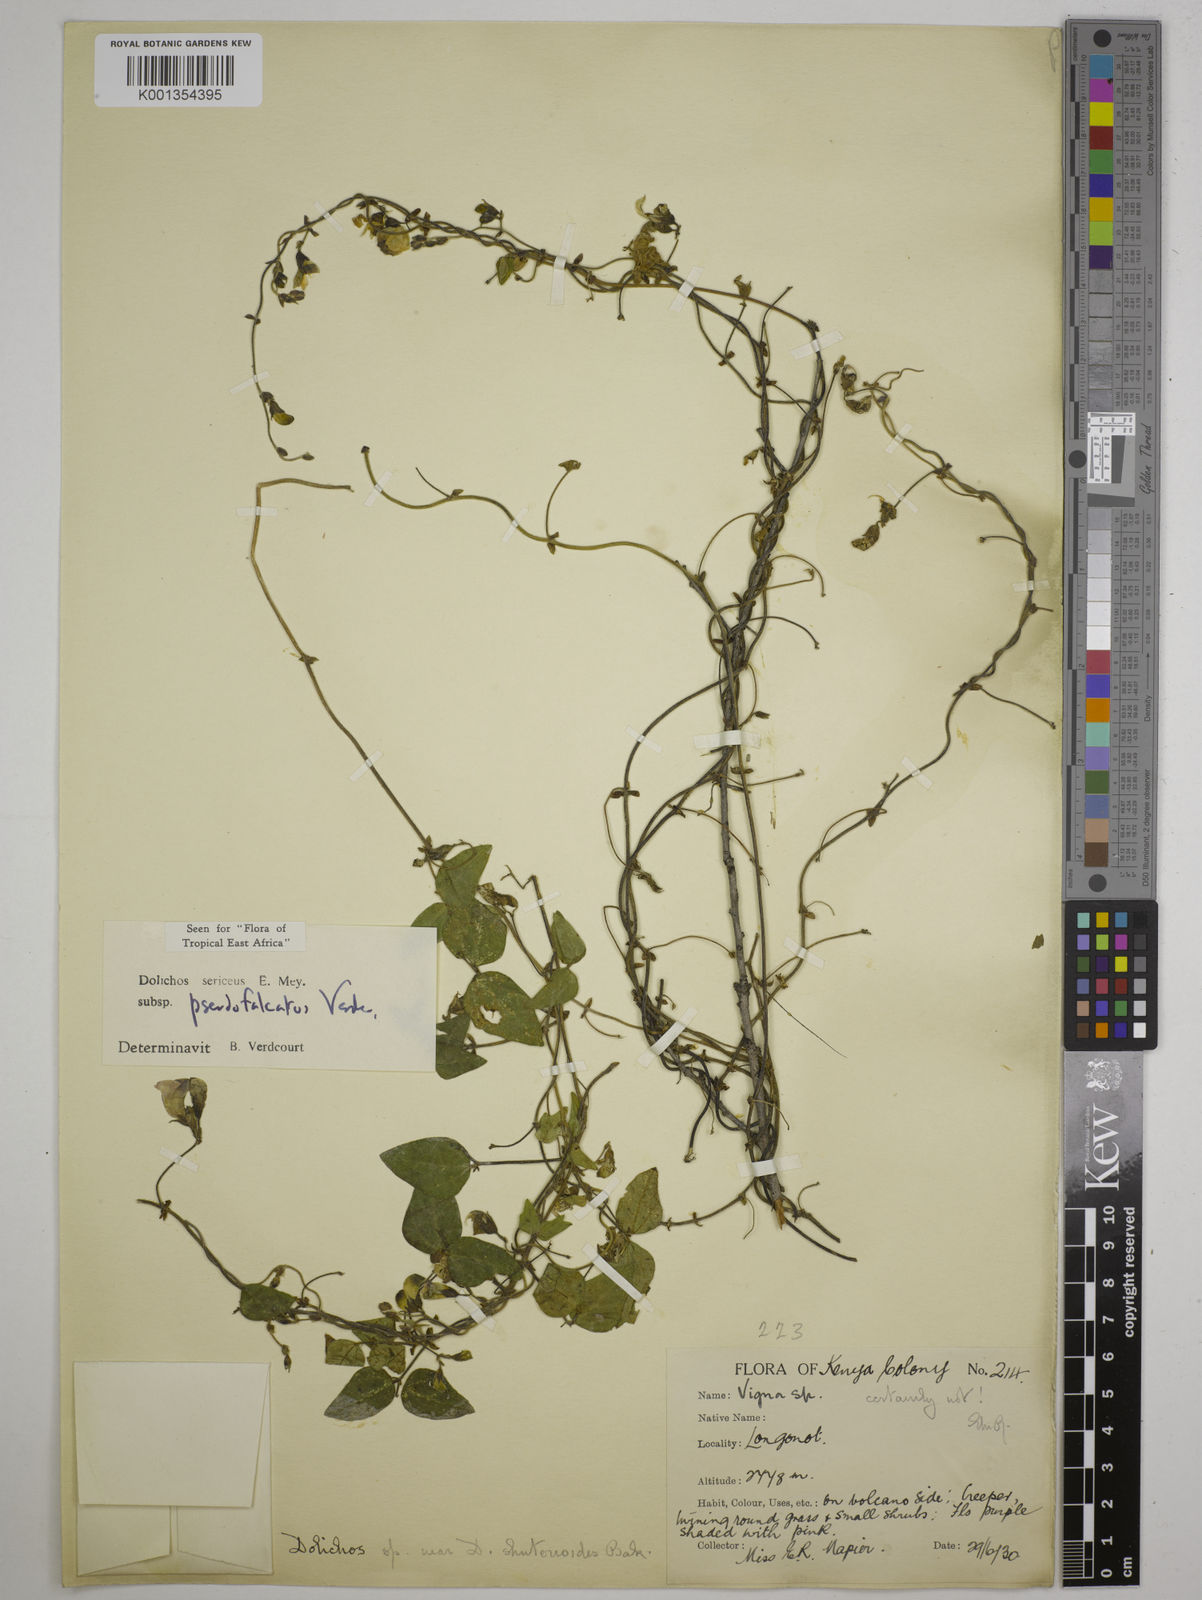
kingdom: Plantae
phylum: Tracheophyta
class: Magnoliopsida
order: Fabales
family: Fabaceae
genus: Dolichos
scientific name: Dolichos
